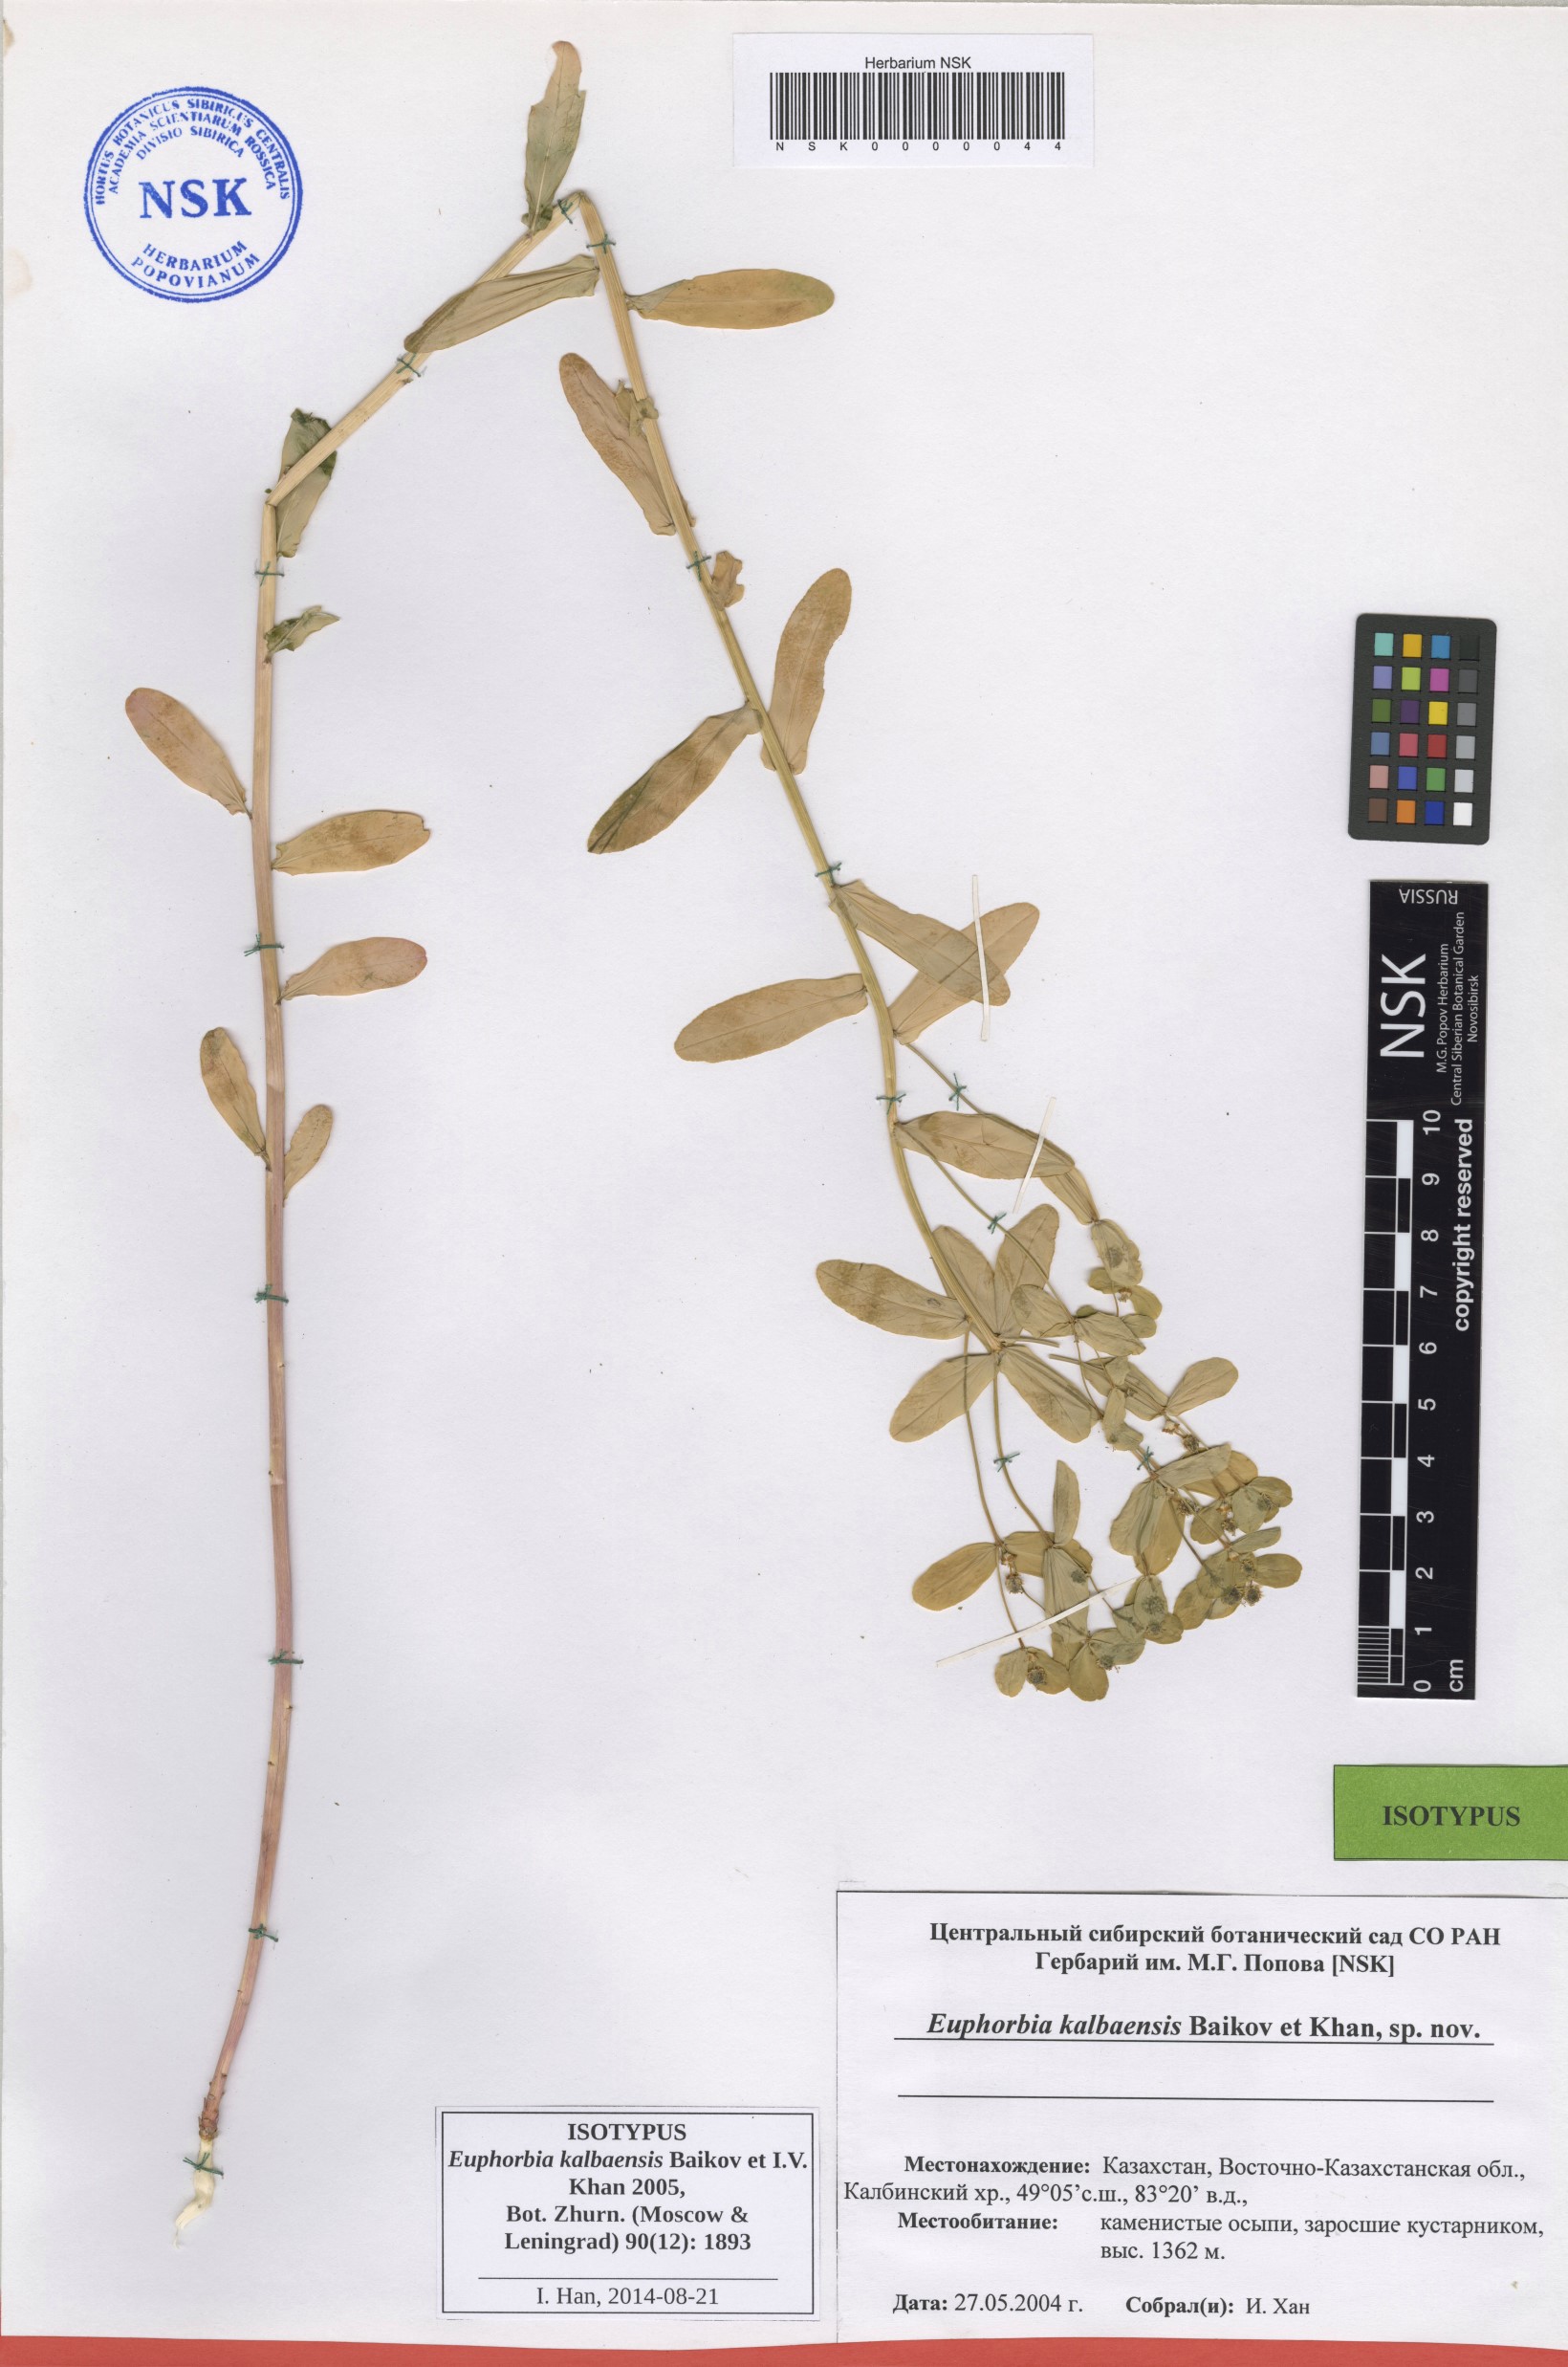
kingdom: Plantae
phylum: Tracheophyta
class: Magnoliopsida
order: Malpighiales
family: Euphorbiaceae
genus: Euphorbia
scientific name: Euphorbia kalbaensis
